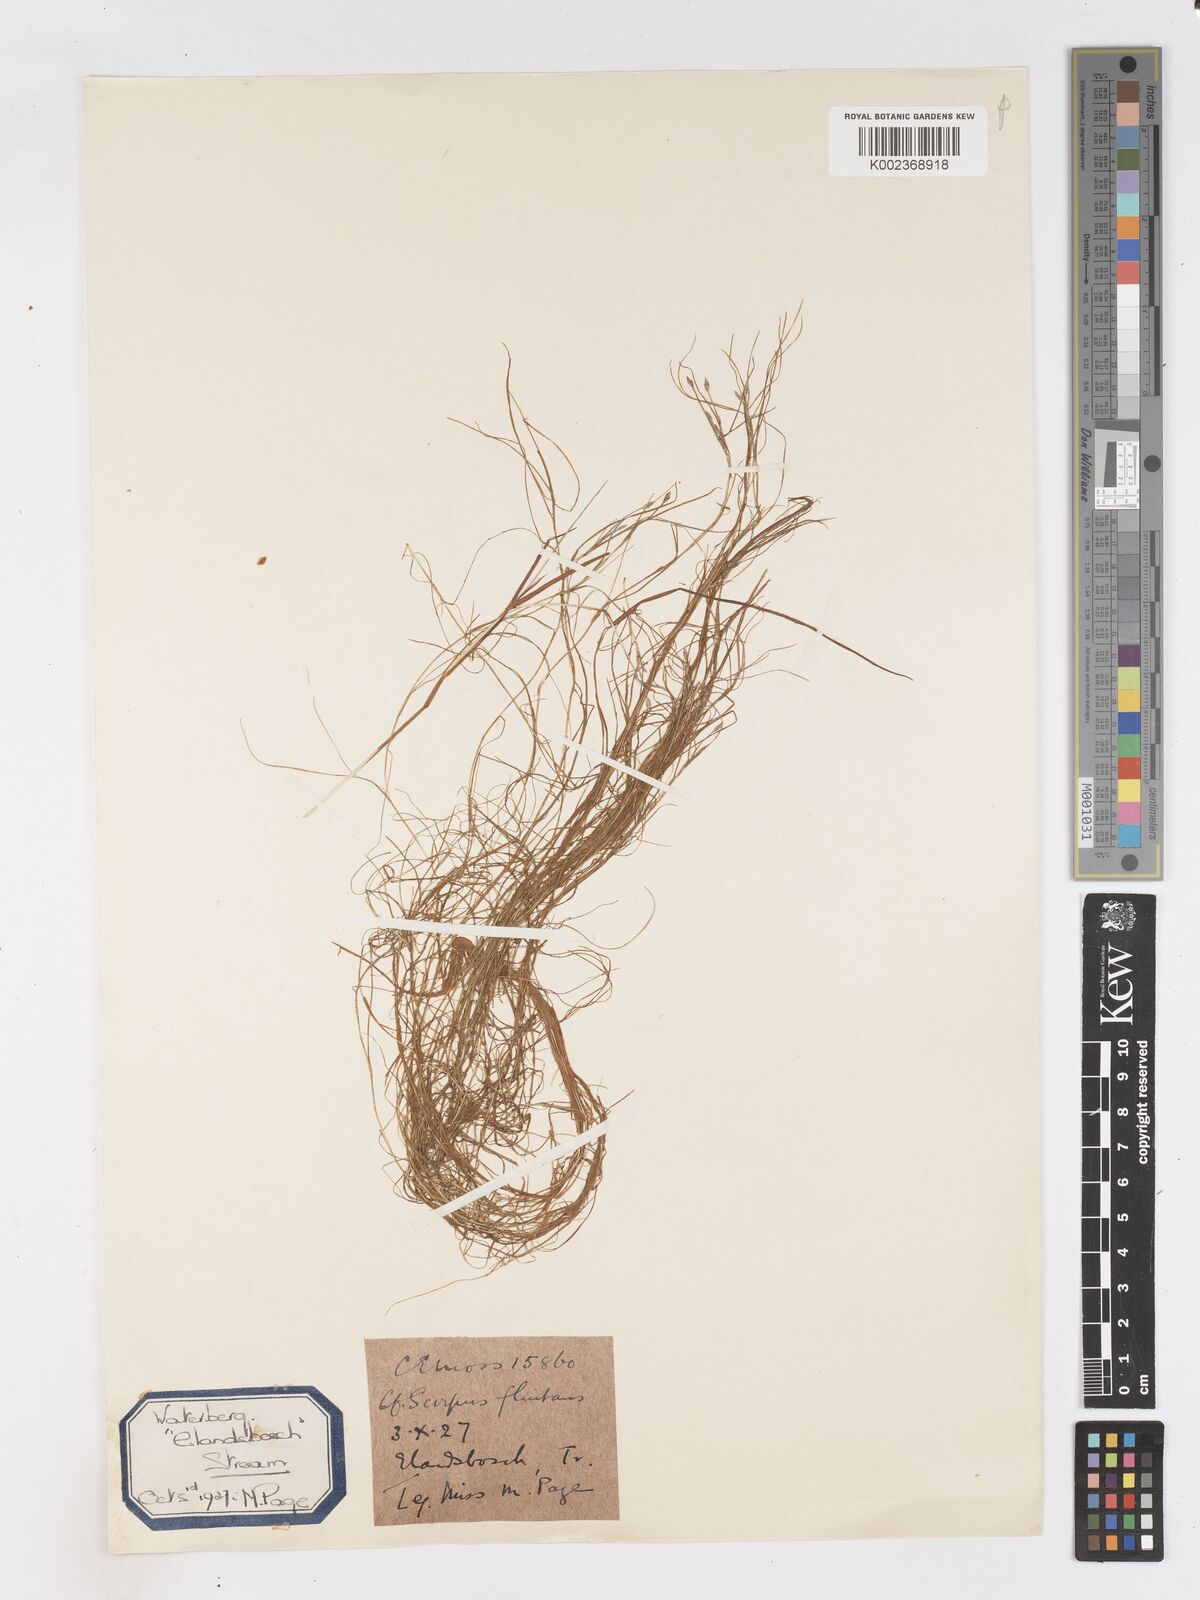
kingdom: Plantae
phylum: Tracheophyta
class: Liliopsida
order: Poales
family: Cyperaceae
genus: Isolepis
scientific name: Isolepis fluitans
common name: Floating club-rush
